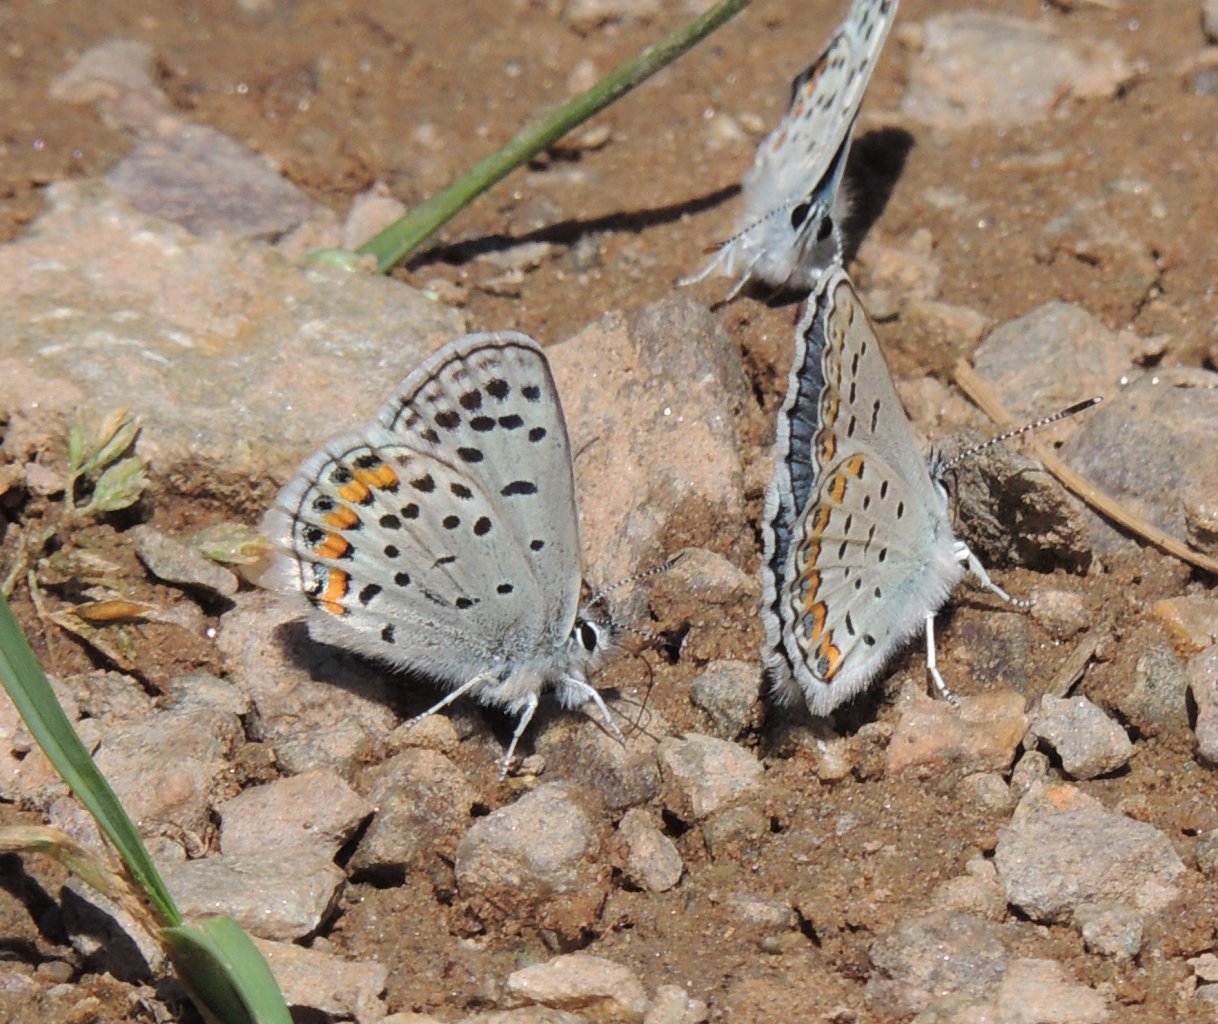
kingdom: Animalia
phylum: Arthropoda
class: Insecta
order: Lepidoptera
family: Lycaenidae
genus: Plebejus
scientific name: Plebejus lupini
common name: Lupine Blue
